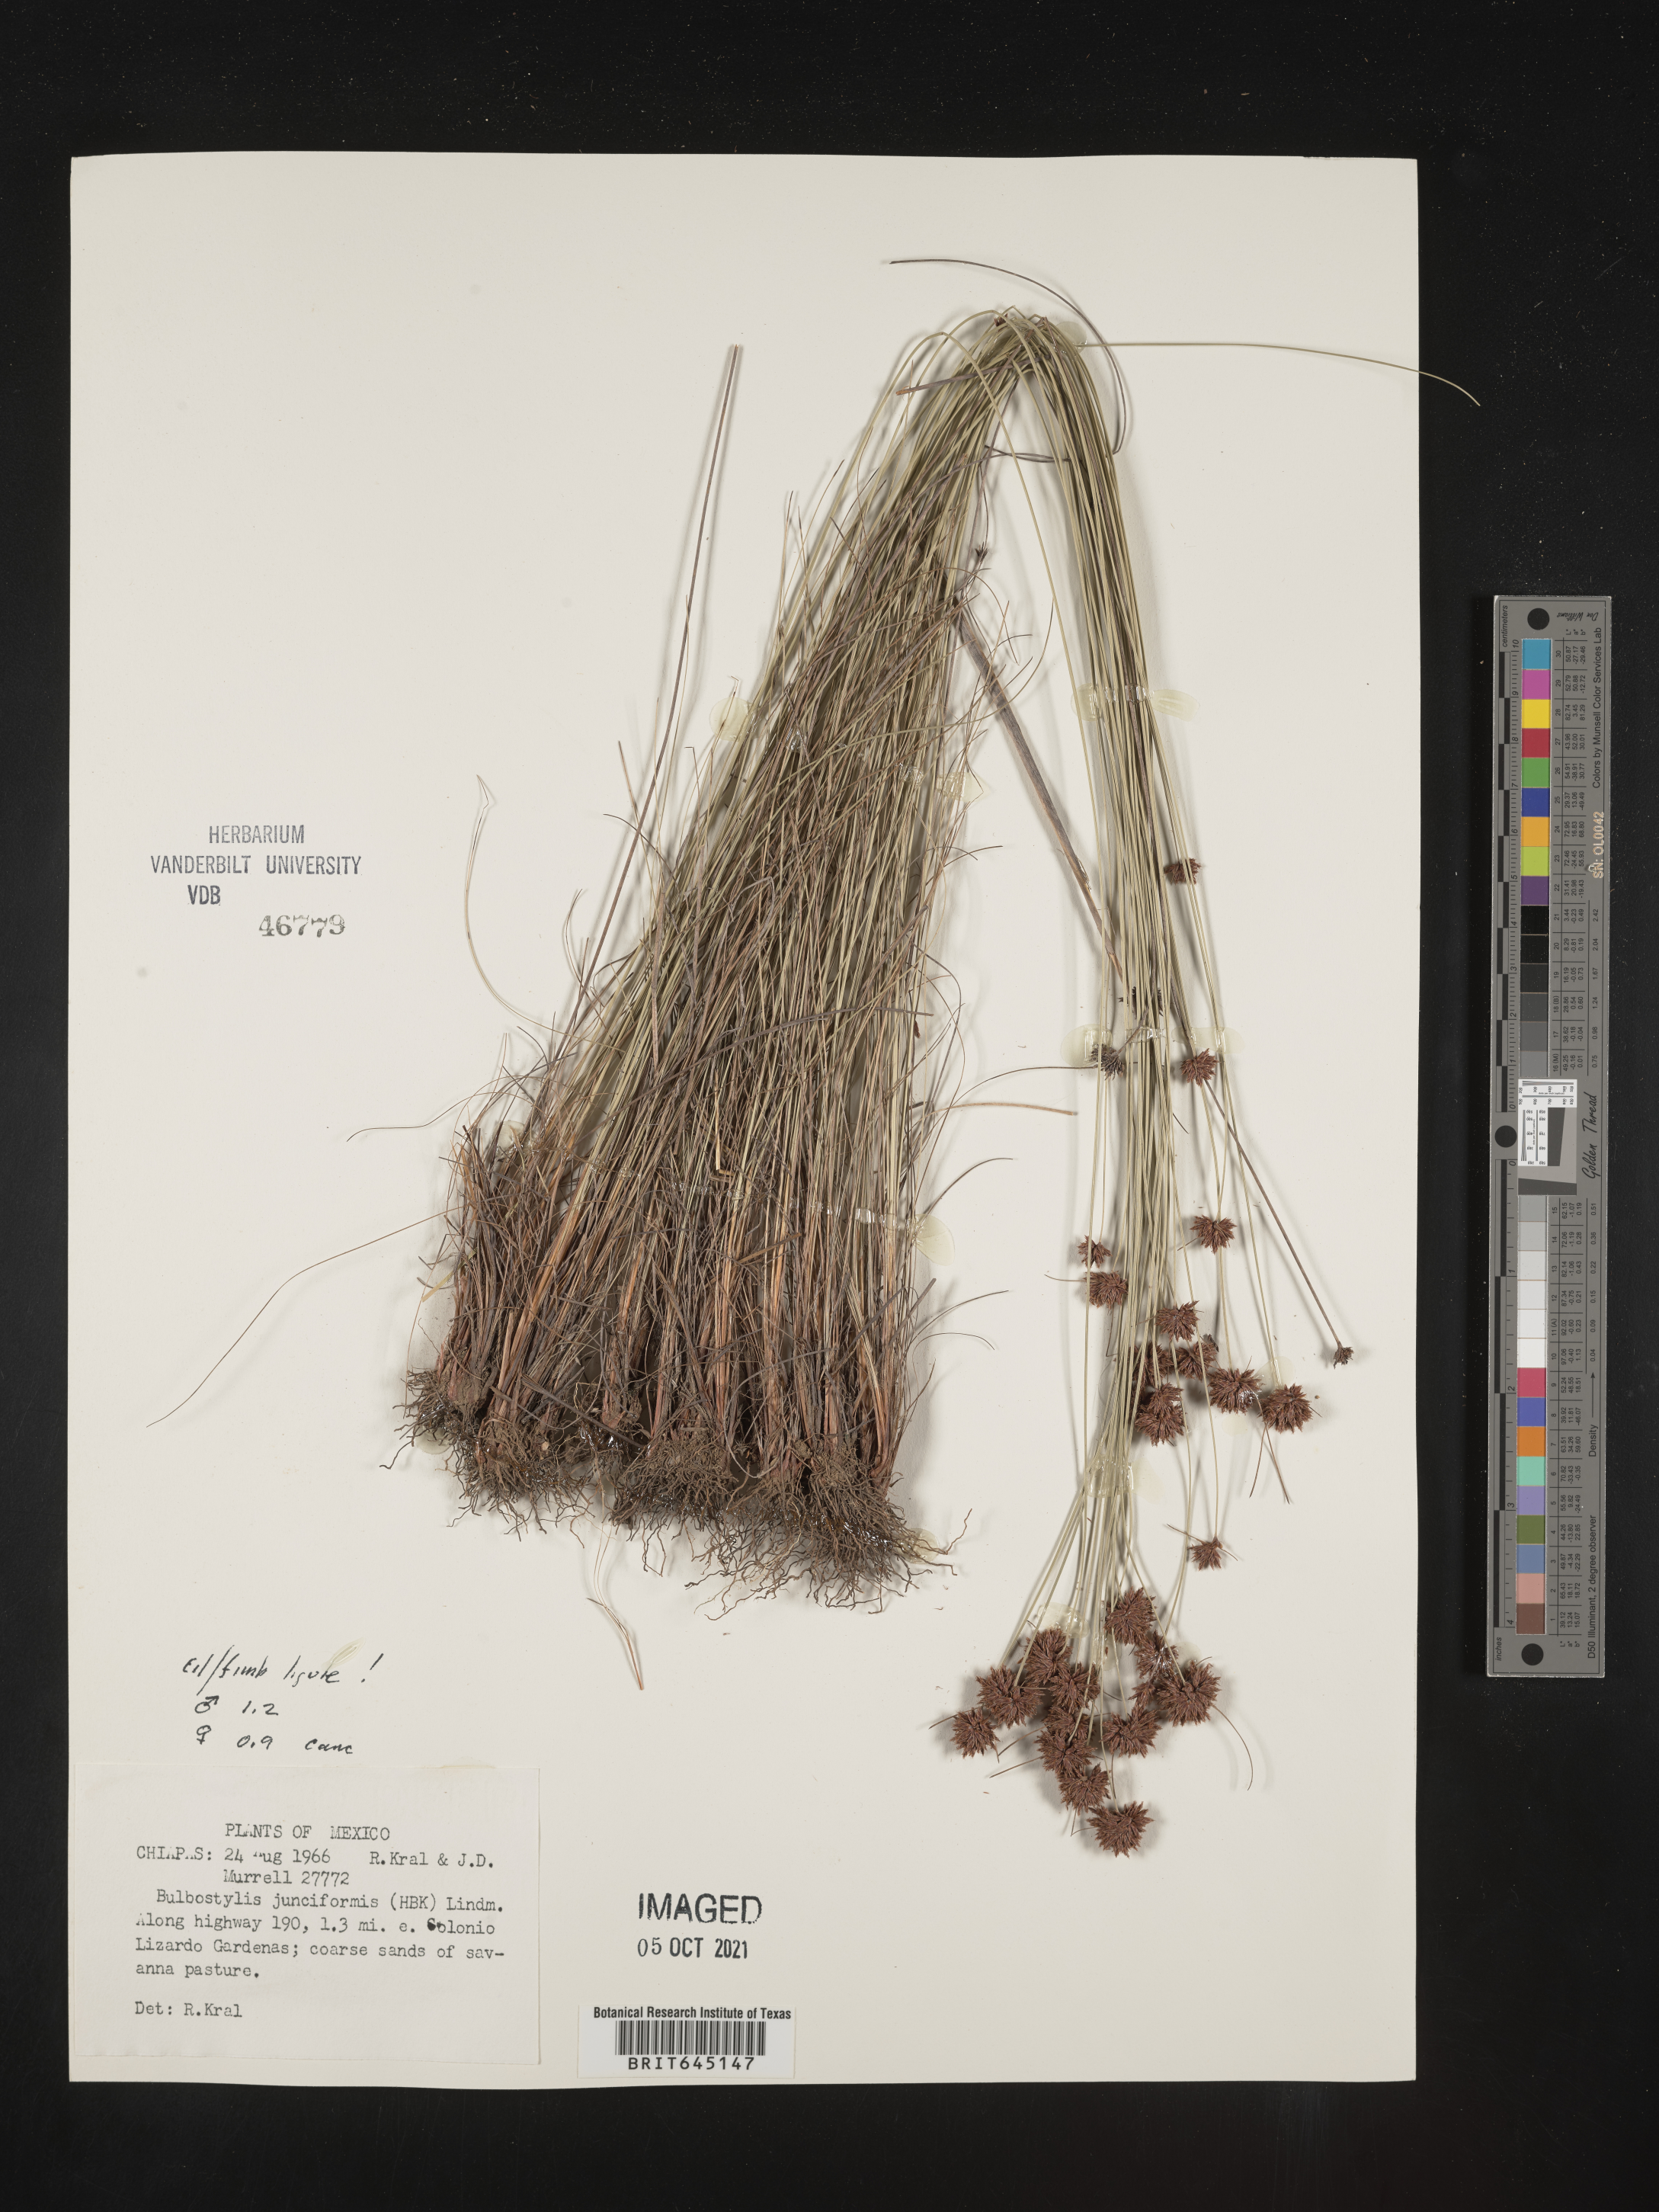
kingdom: Plantae
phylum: Tracheophyta
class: Liliopsida
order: Poales
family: Cyperaceae
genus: Bulbostylis
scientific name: Bulbostylis junciformis
